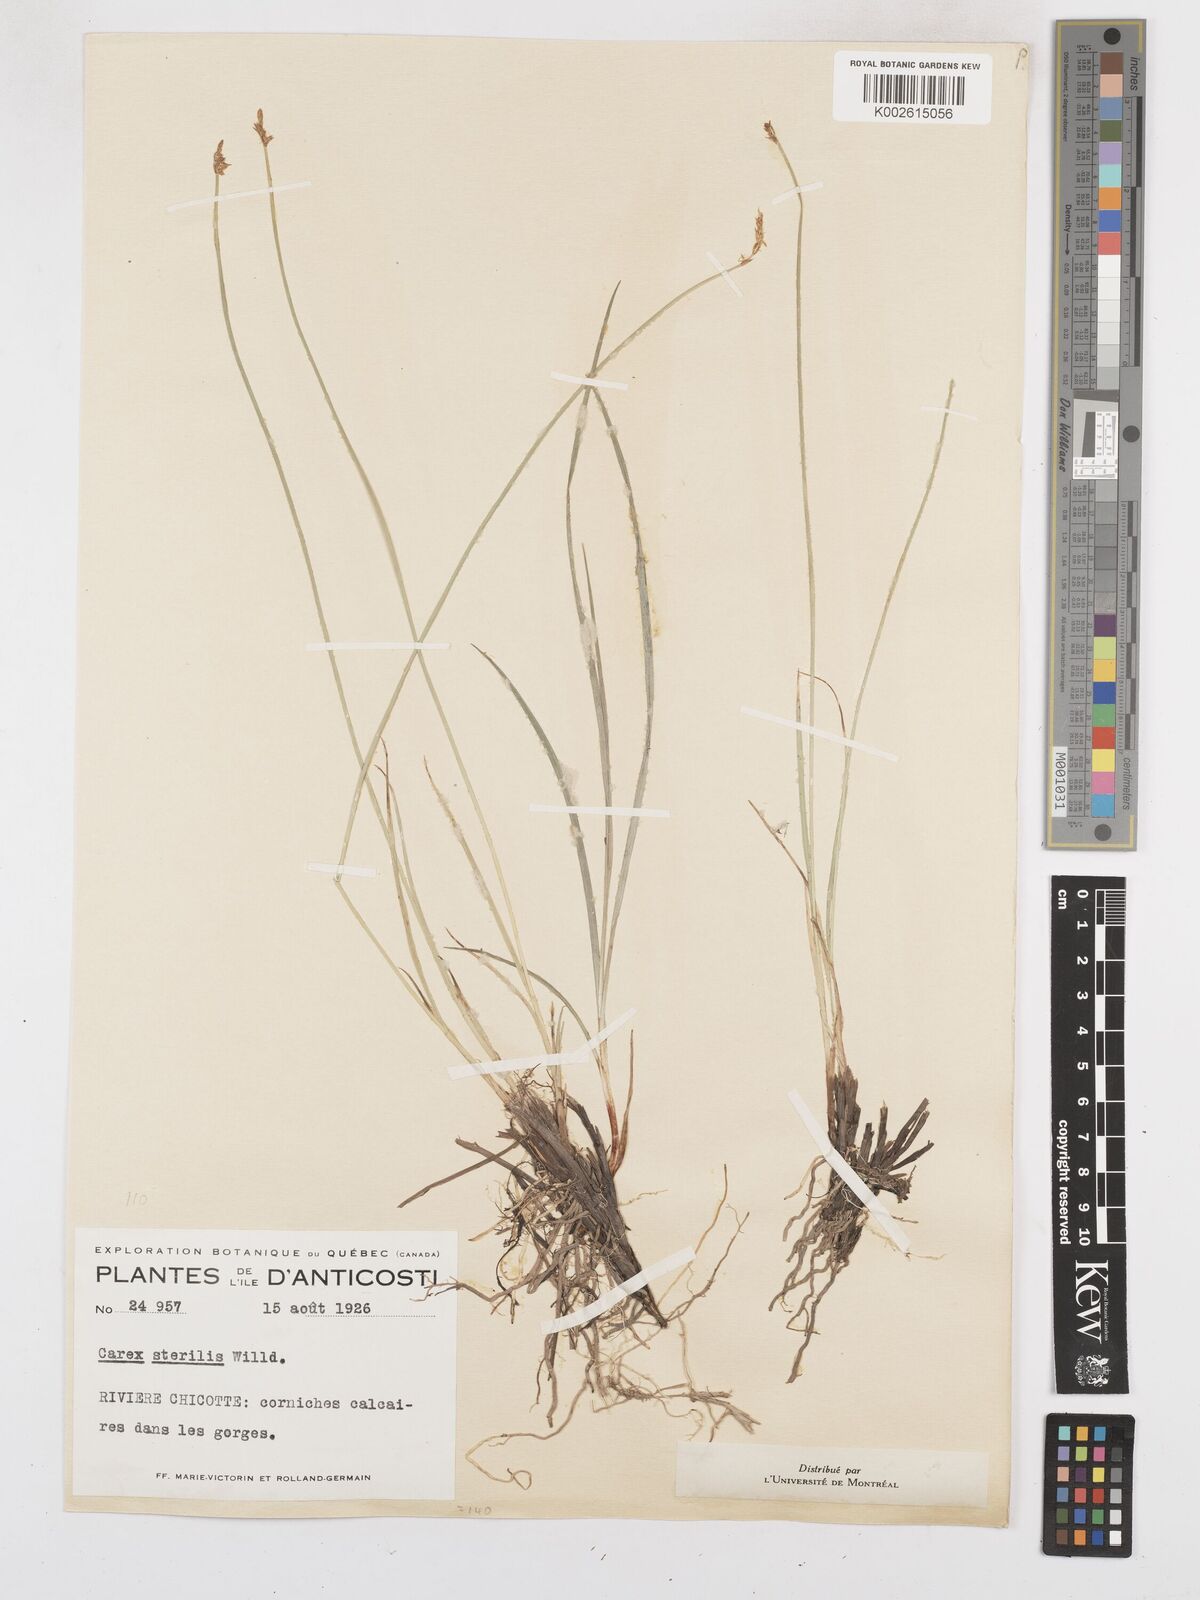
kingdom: Plantae
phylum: Tracheophyta
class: Liliopsida
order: Poales
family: Cyperaceae
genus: Carex
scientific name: Carex sterilis
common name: Dioecious sedge
